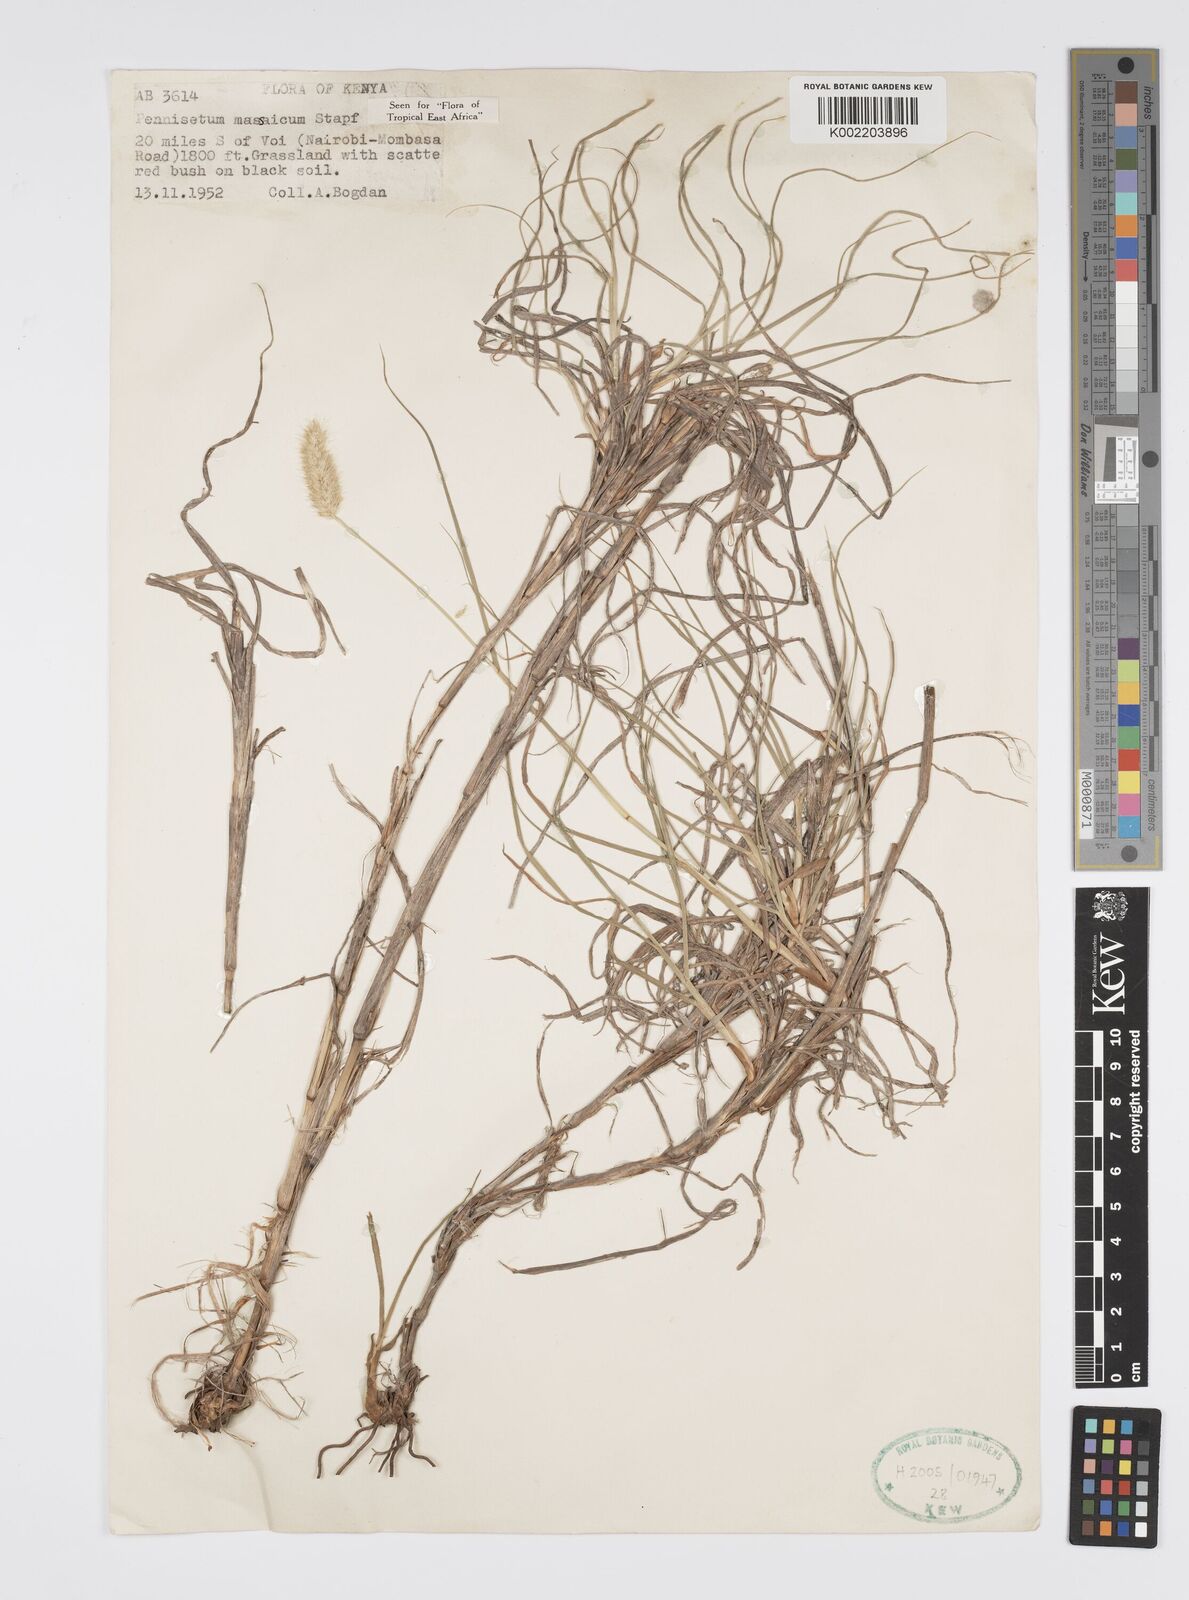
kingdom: Plantae
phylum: Tracheophyta
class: Liliopsida
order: Poales
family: Poaceae
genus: Cenchrus
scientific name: Cenchrus massaicus
